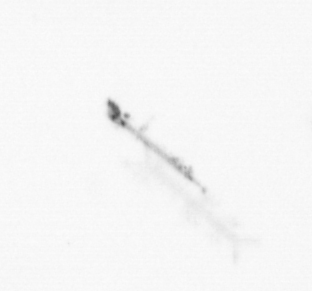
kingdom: Chromista
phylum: Ochrophyta
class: Bacillariophyceae
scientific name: Bacillariophyceae
